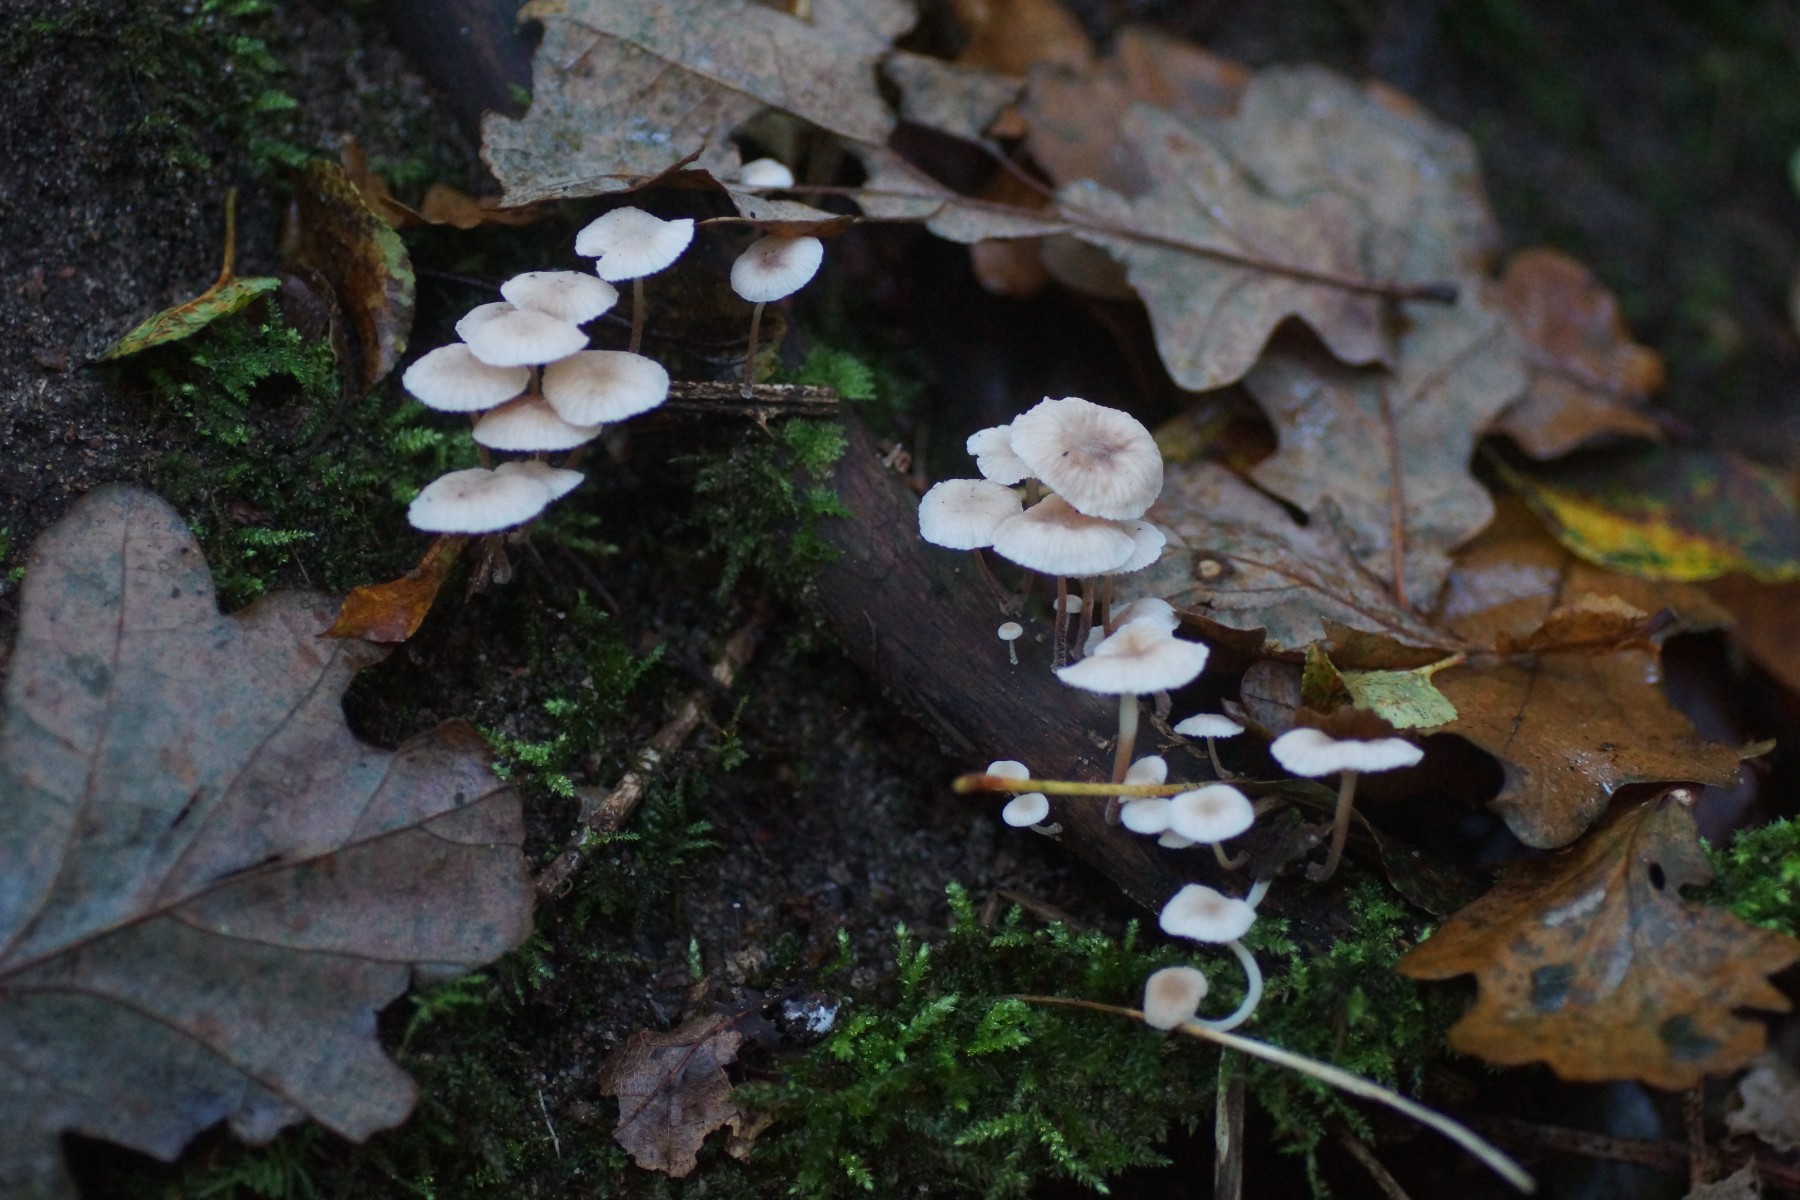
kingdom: Fungi
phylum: Basidiomycota
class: Agaricomycetes
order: Agaricales
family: Omphalotaceae
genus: Collybiopsis
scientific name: Collybiopsis ramealis
